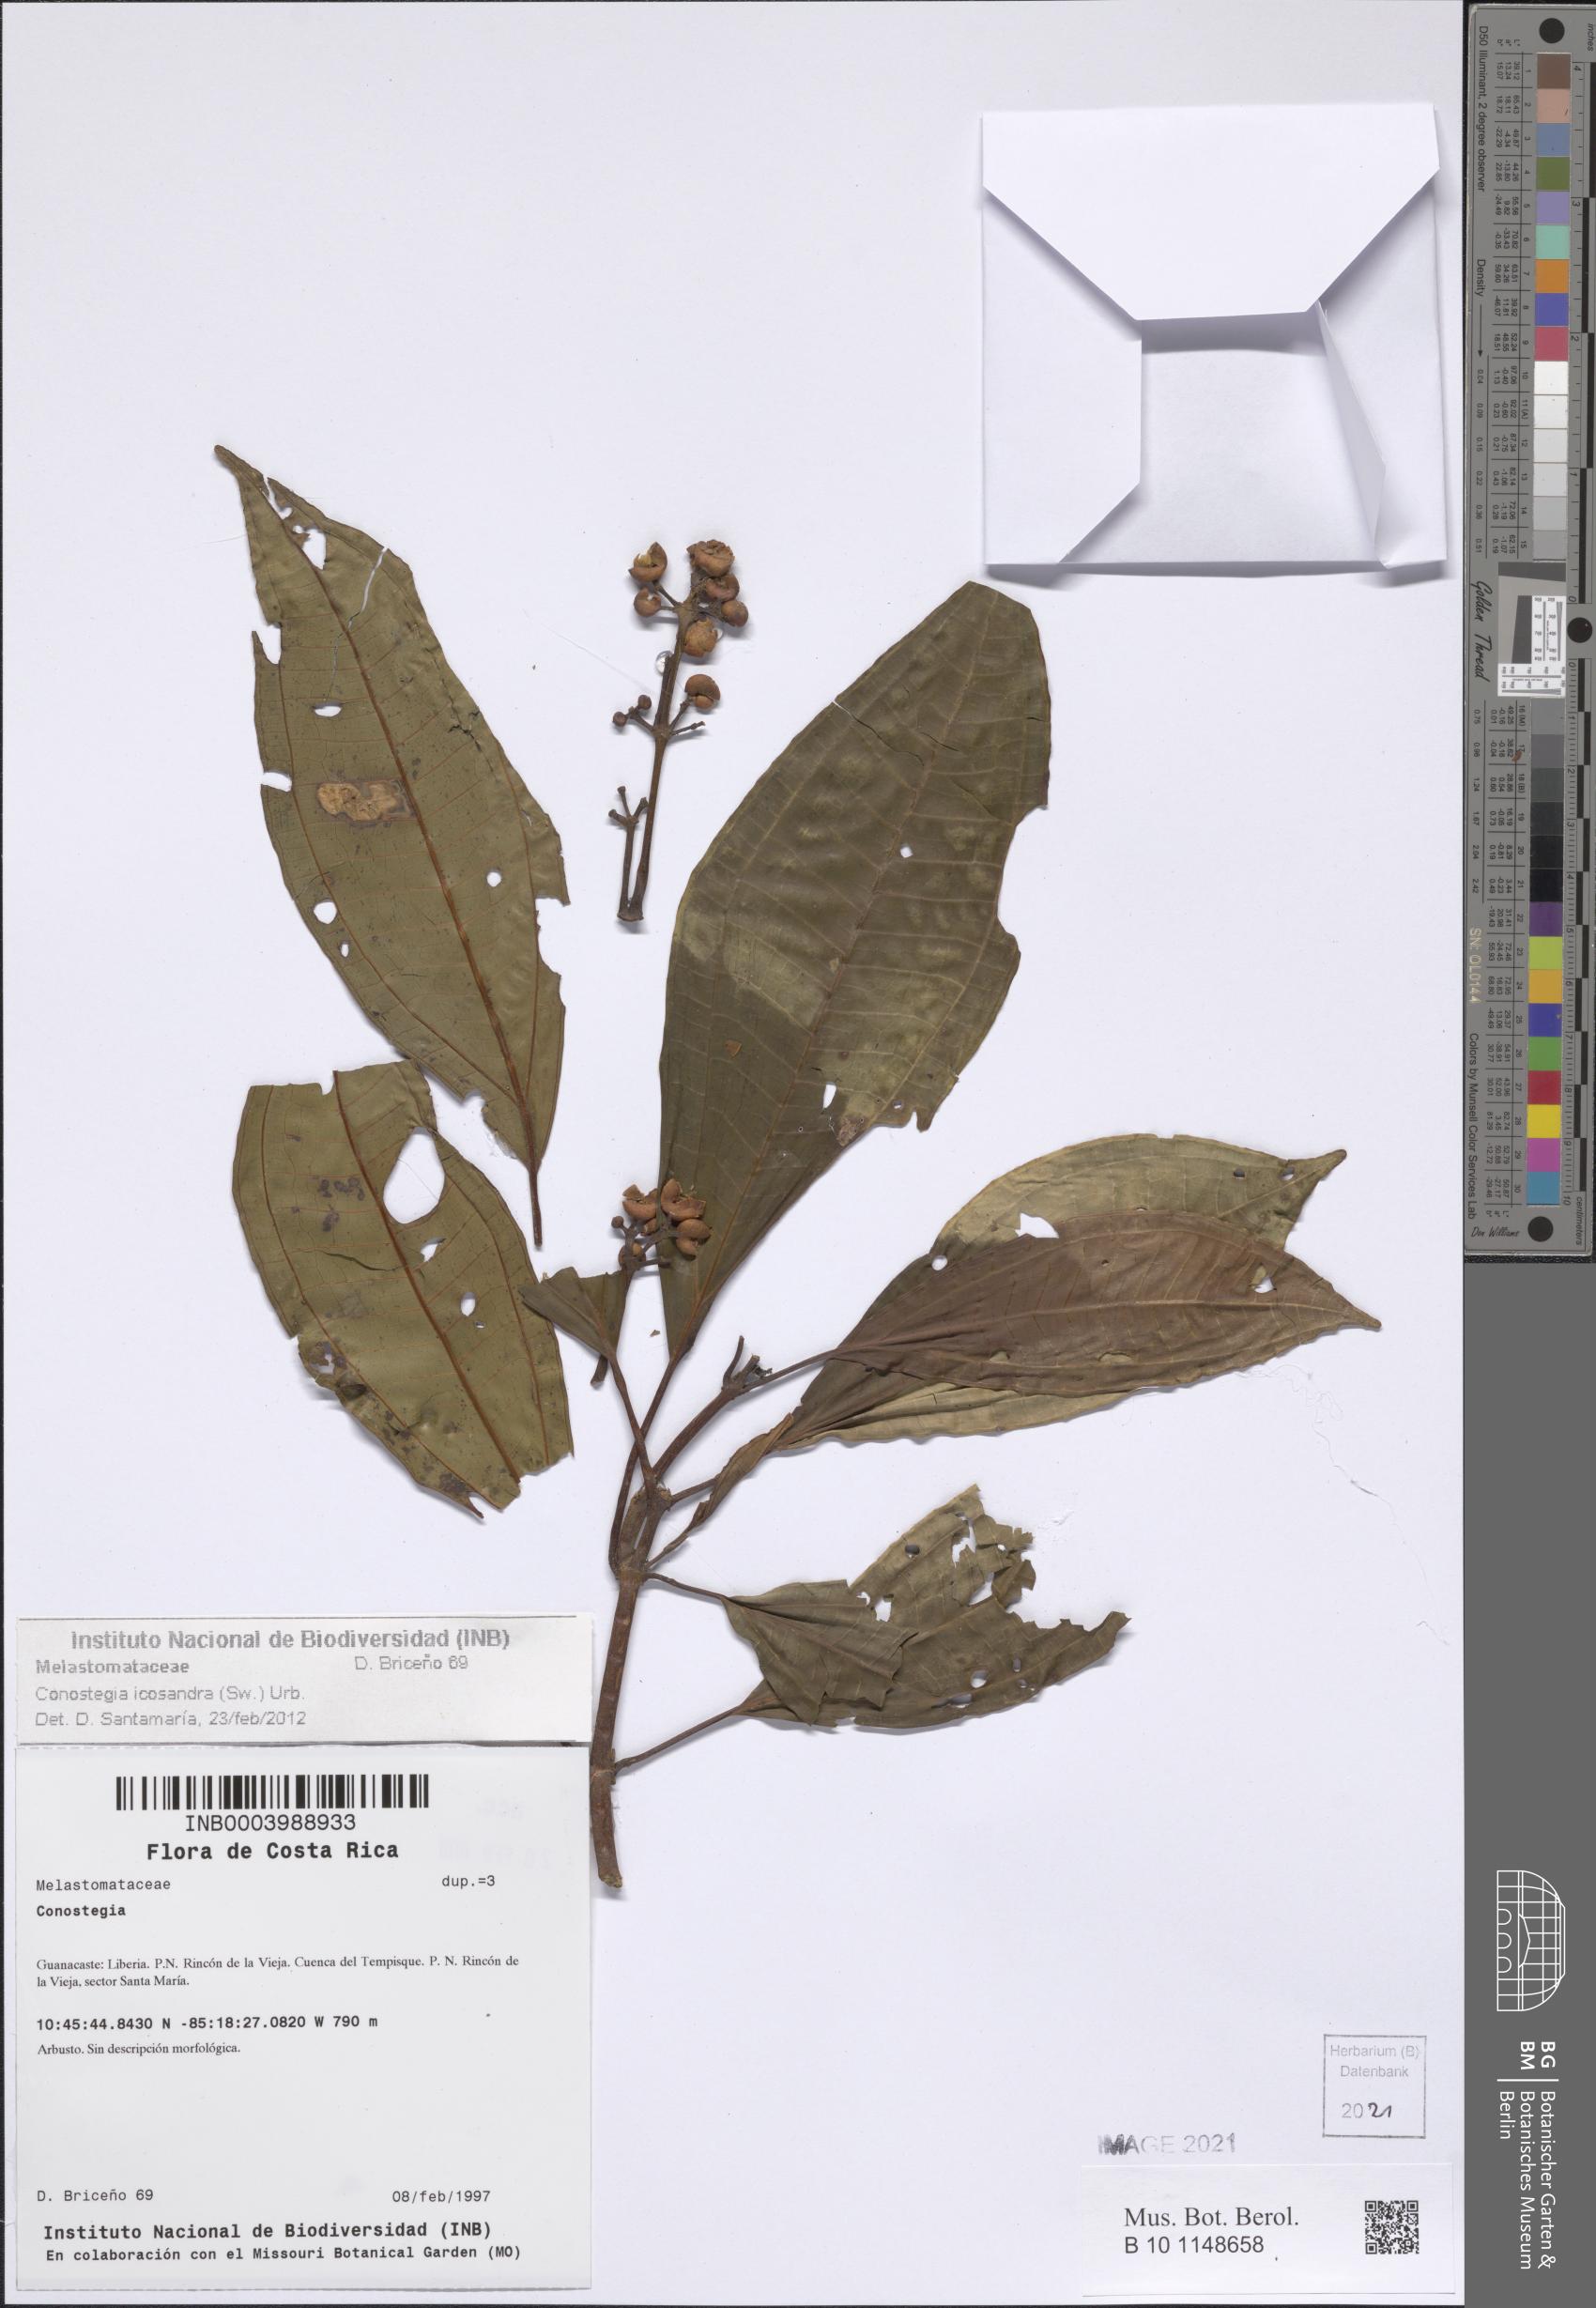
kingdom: Plantae
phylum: Tracheophyta
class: Magnoliopsida
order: Myrtales
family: Melastomataceae
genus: Miconia
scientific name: Miconia subhirsuta
